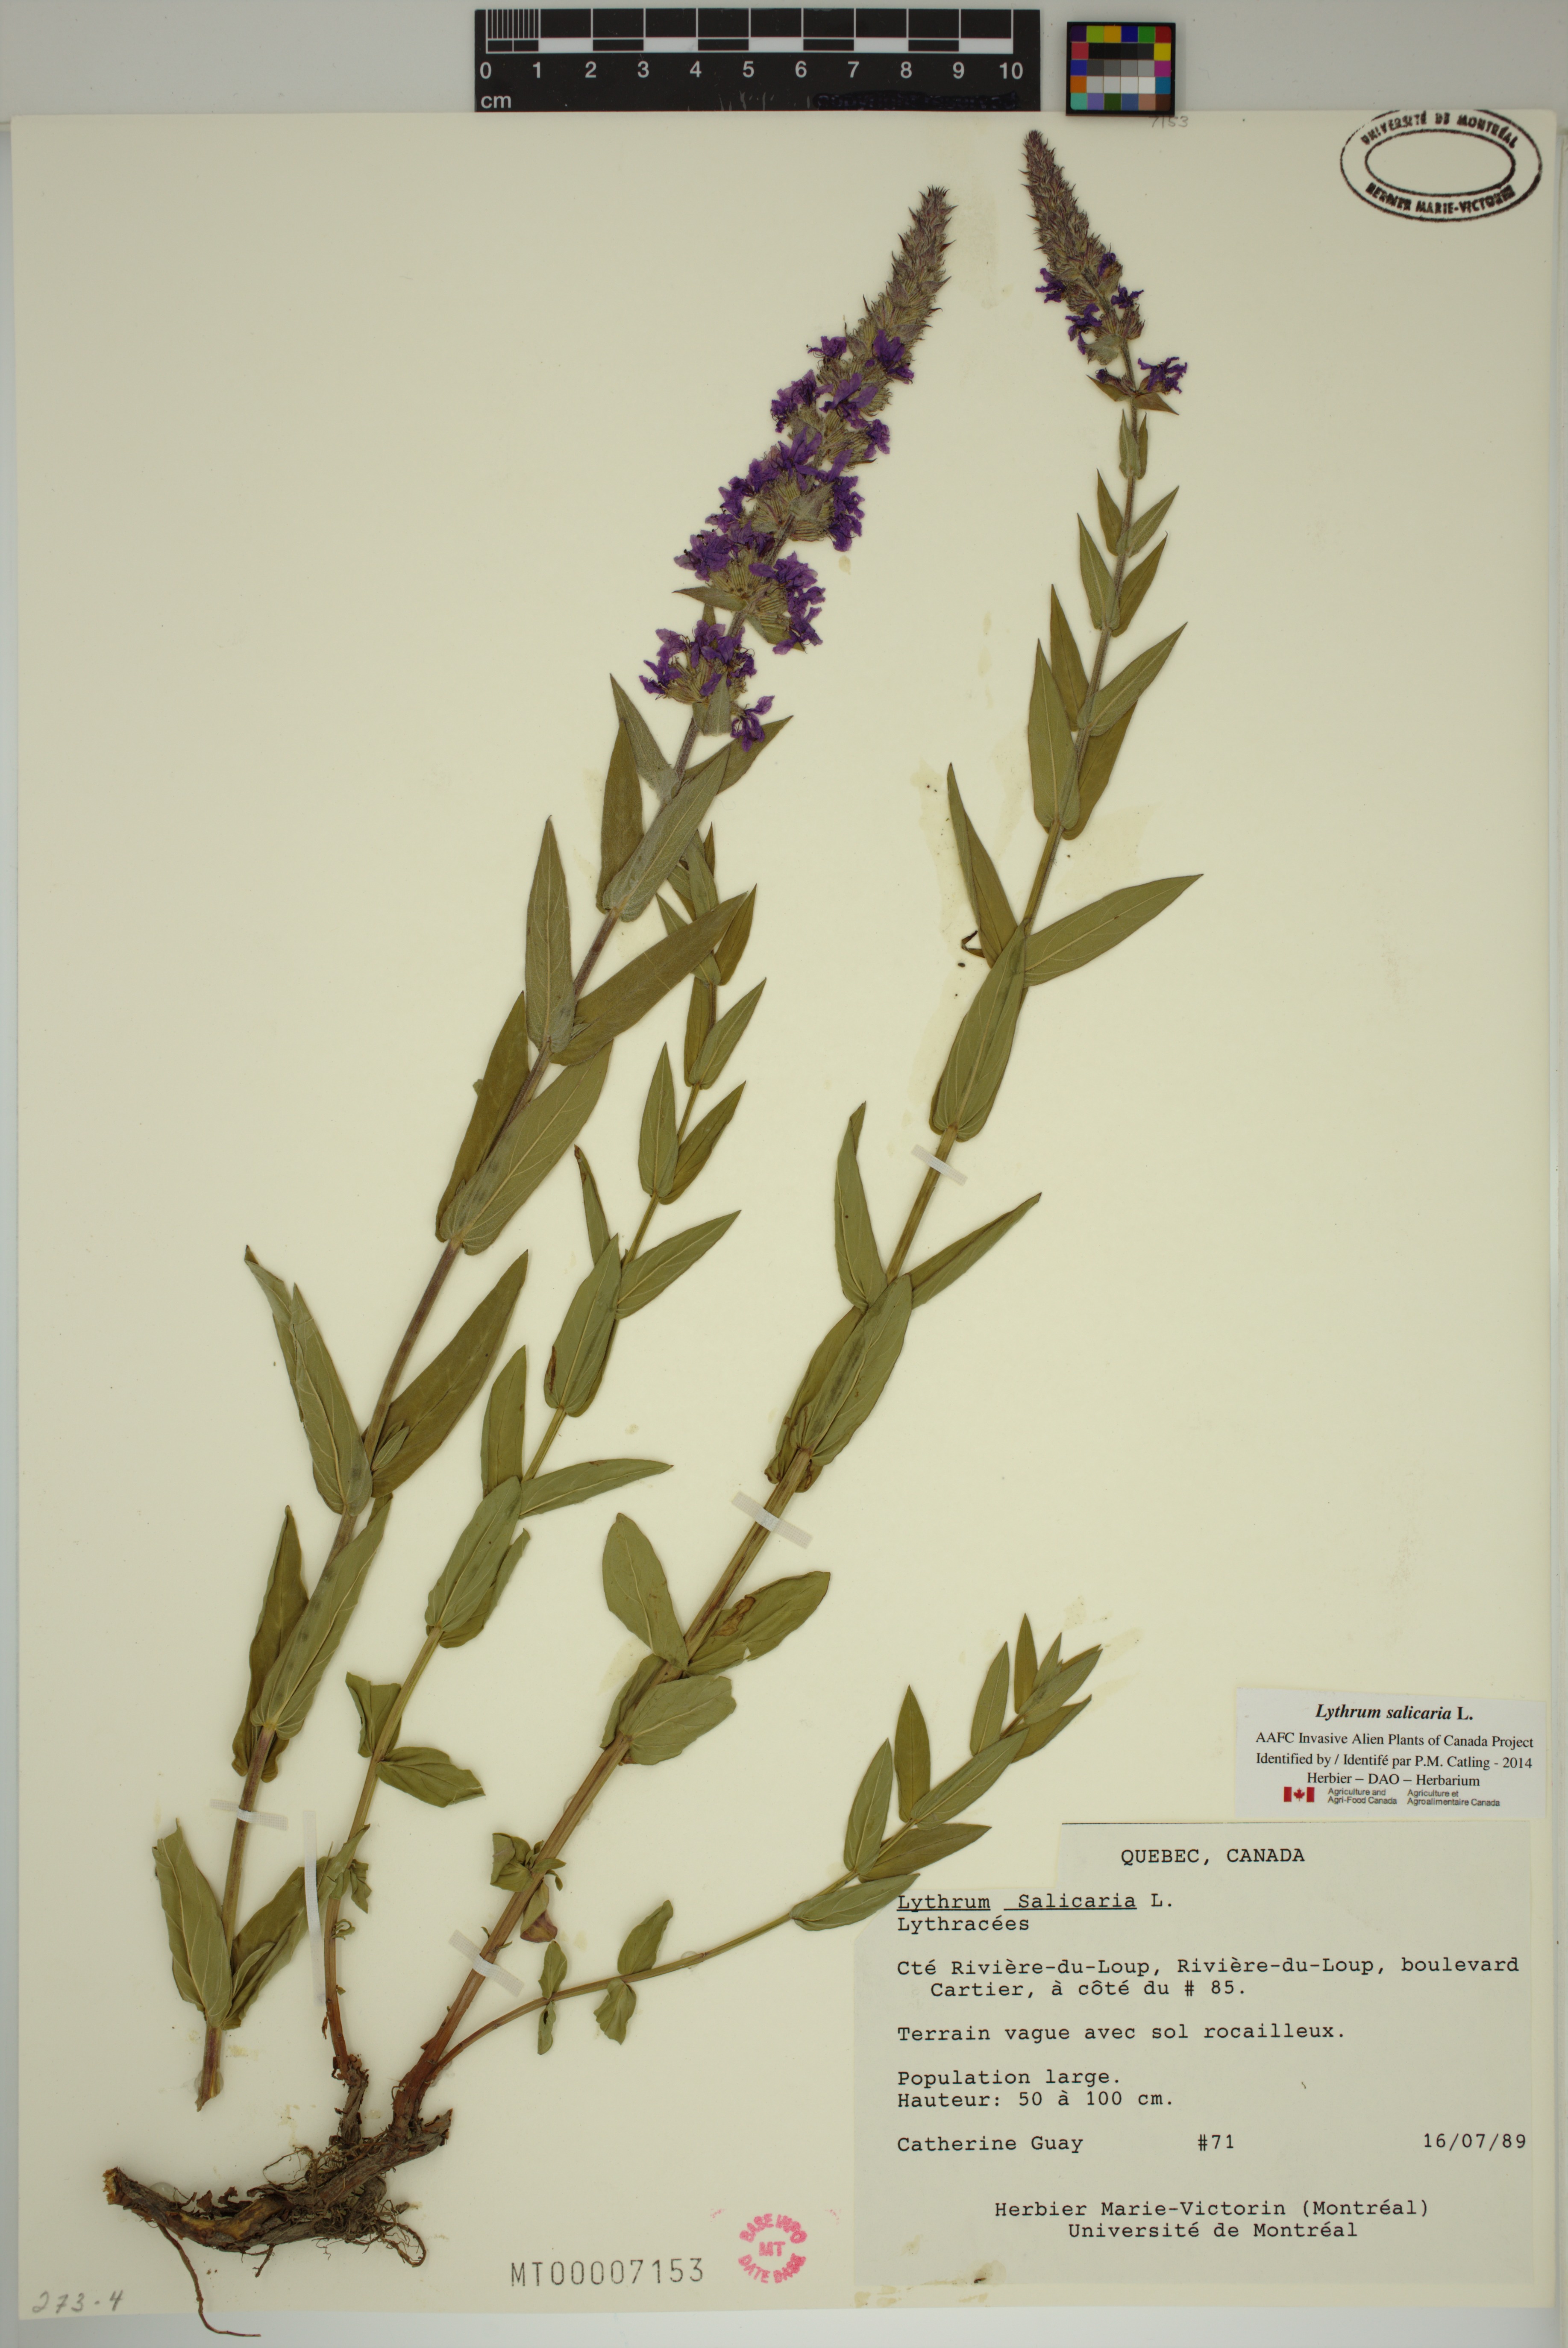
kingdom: Plantae
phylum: Tracheophyta
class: Magnoliopsida
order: Myrtales
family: Lythraceae
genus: Lythrum
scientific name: Lythrum salicaria
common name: Purple loosestrife
